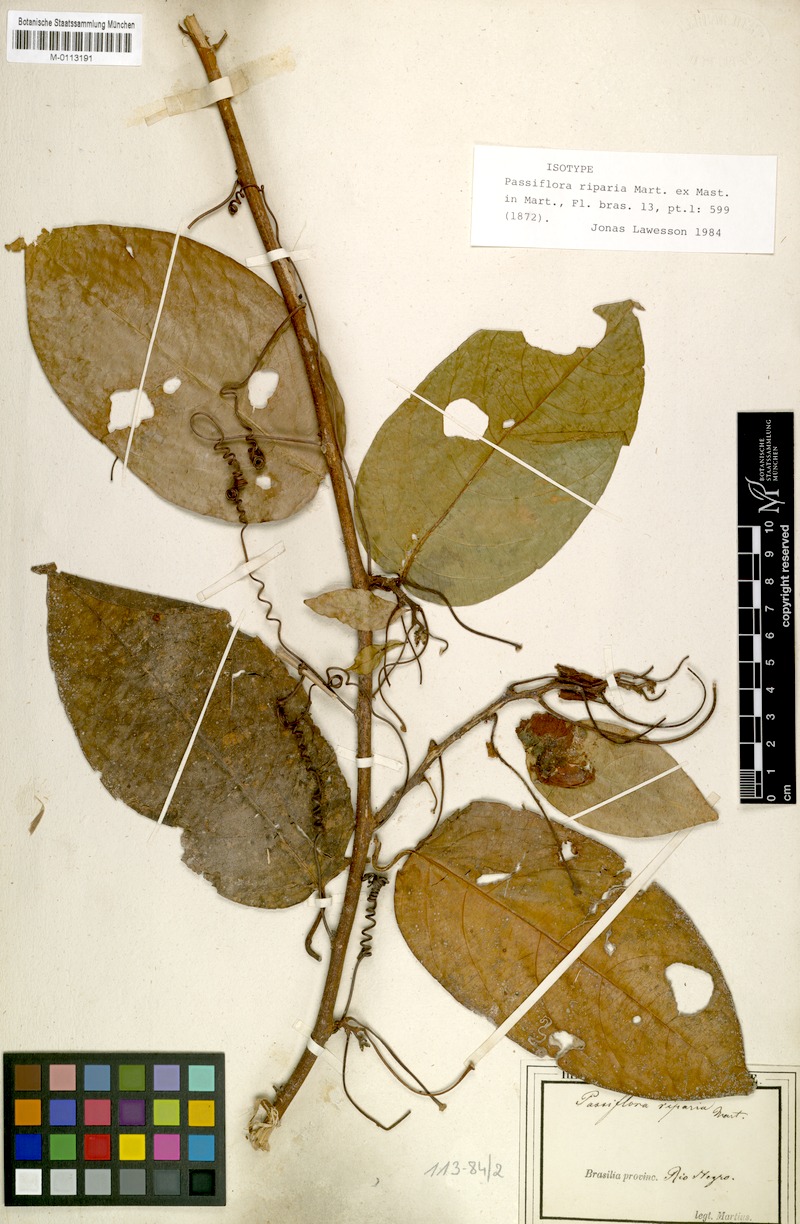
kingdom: Plantae
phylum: Tracheophyta
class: Magnoliopsida
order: Malpighiales
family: Passifloraceae
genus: Passiflora
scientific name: Passiflora riparia
